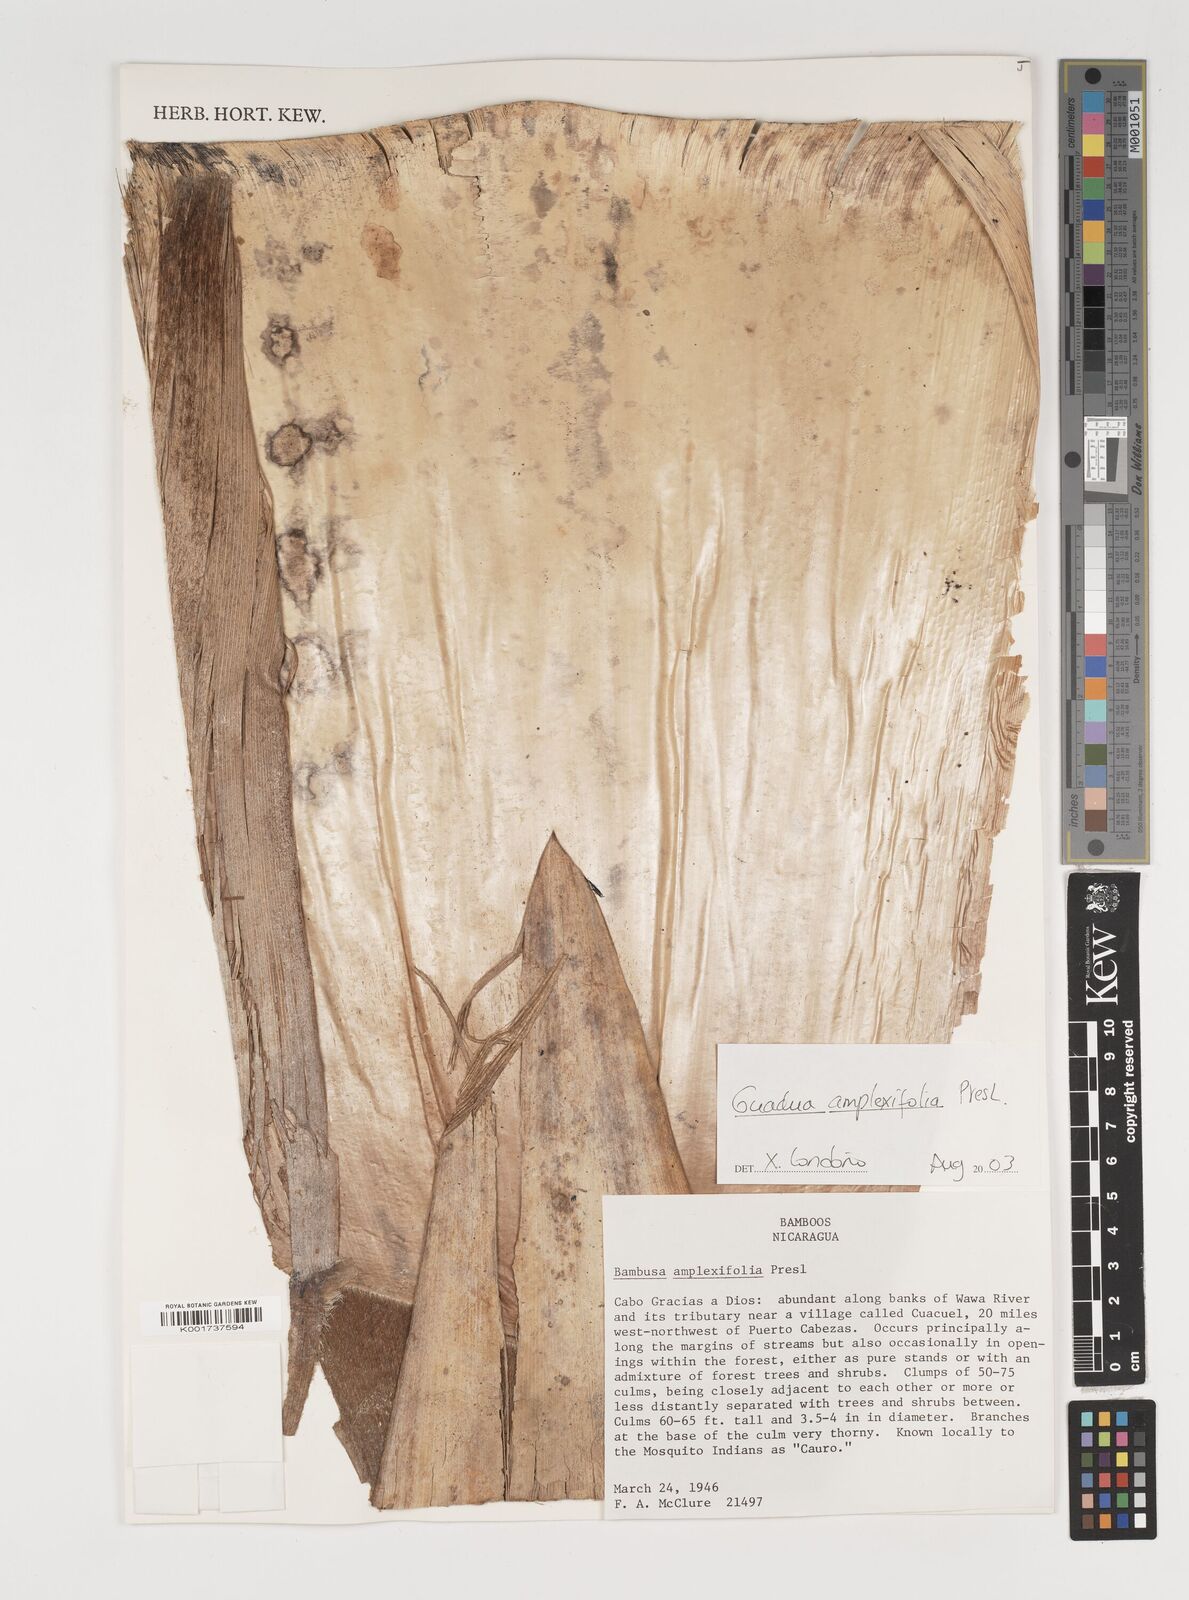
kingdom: Plantae
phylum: Tracheophyta
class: Liliopsida
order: Poales
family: Poaceae
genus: Guadua
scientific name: Guadua amplexifolia
